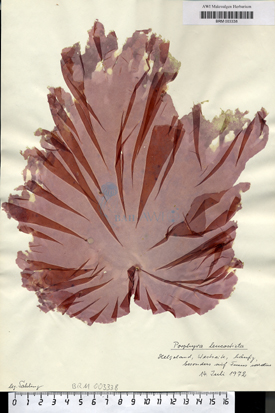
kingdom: Plantae
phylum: Rhodophyta
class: Bangiophyceae
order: Bangiales
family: Bangiaceae
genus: Neopyropia
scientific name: Neopyropia spec
